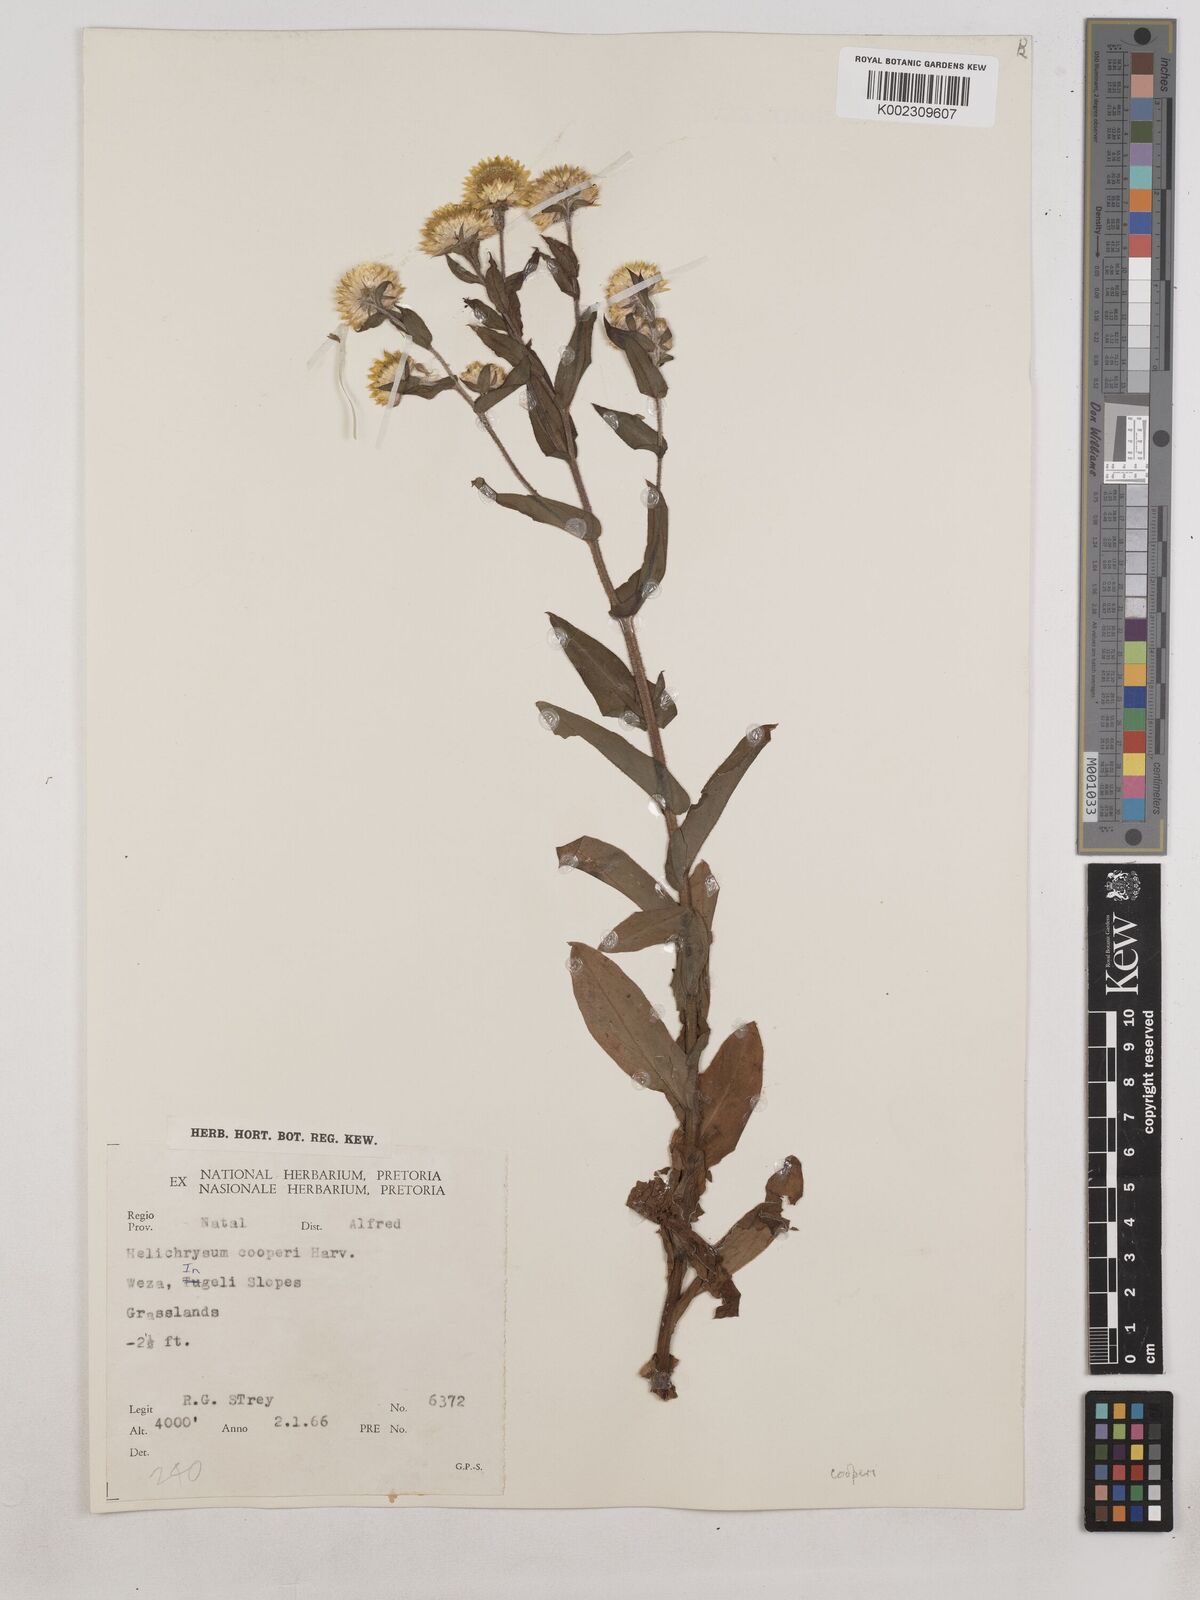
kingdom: Plantae
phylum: Tracheophyta
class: Magnoliopsida
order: Asterales
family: Asteraceae
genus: Helichrysum
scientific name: Helichrysum cooperi
